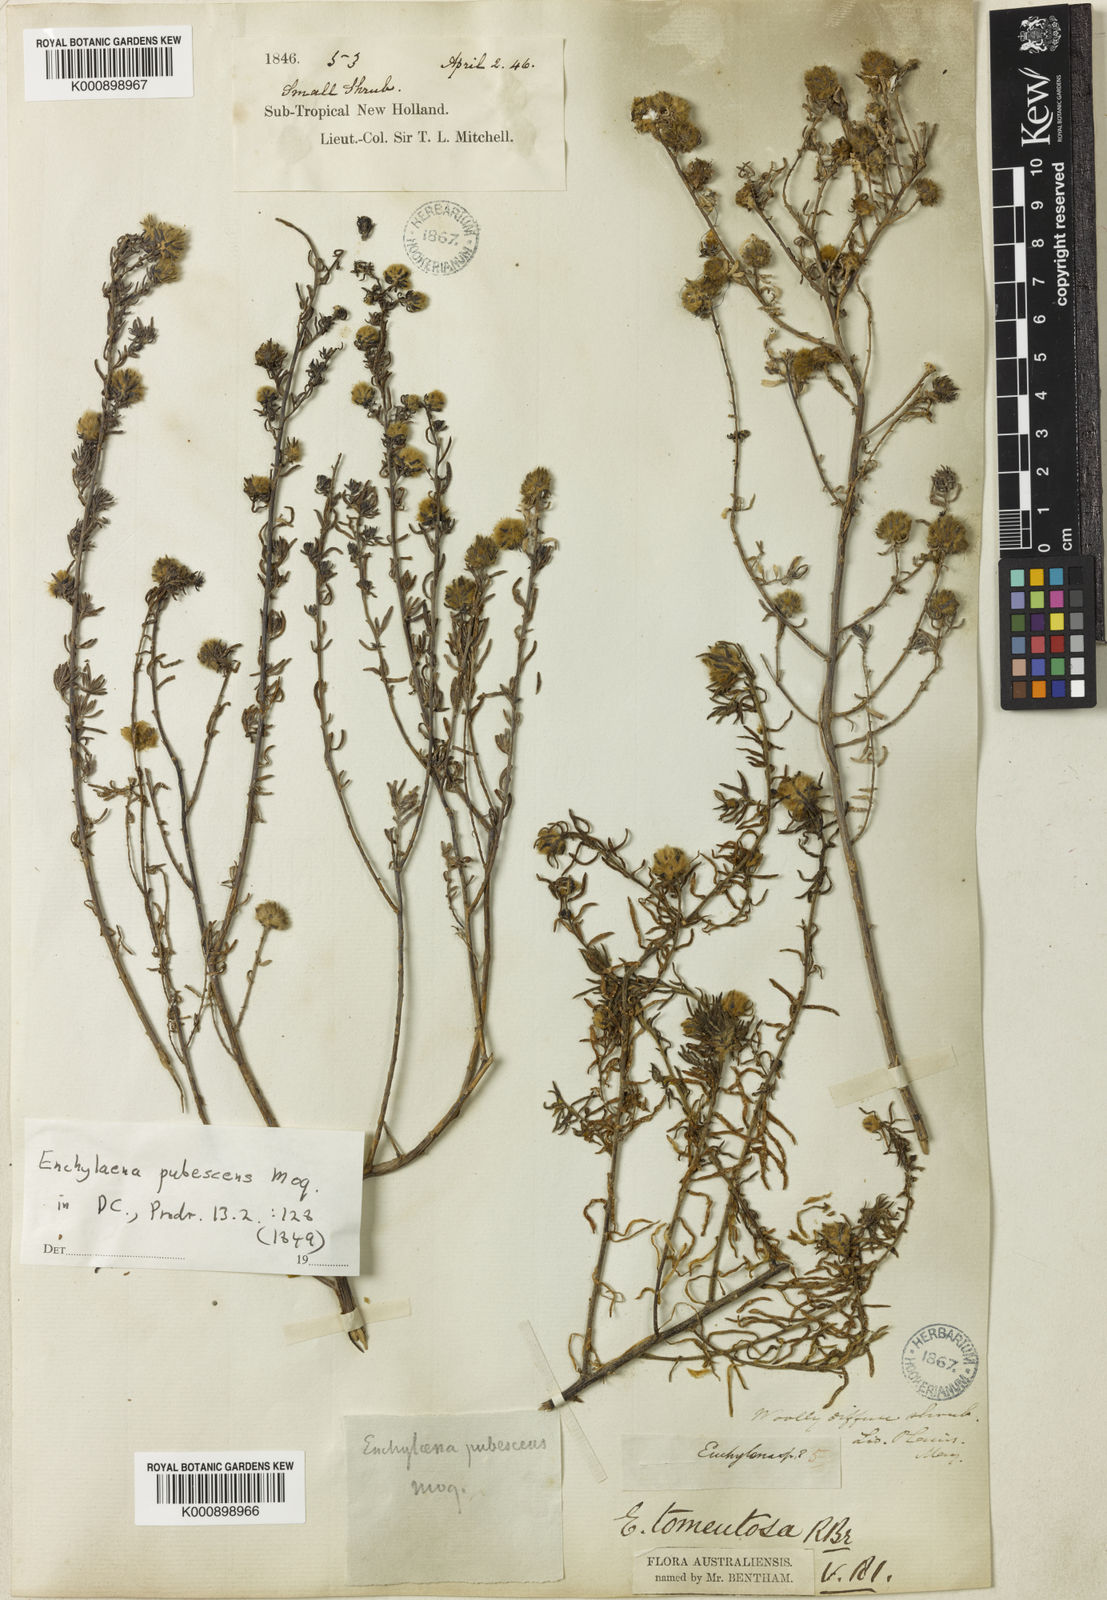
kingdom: Plantae
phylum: Tracheophyta
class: Magnoliopsida
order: Caryophyllales
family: Amaranthaceae
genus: Maireana
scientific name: Maireana tomentosa
